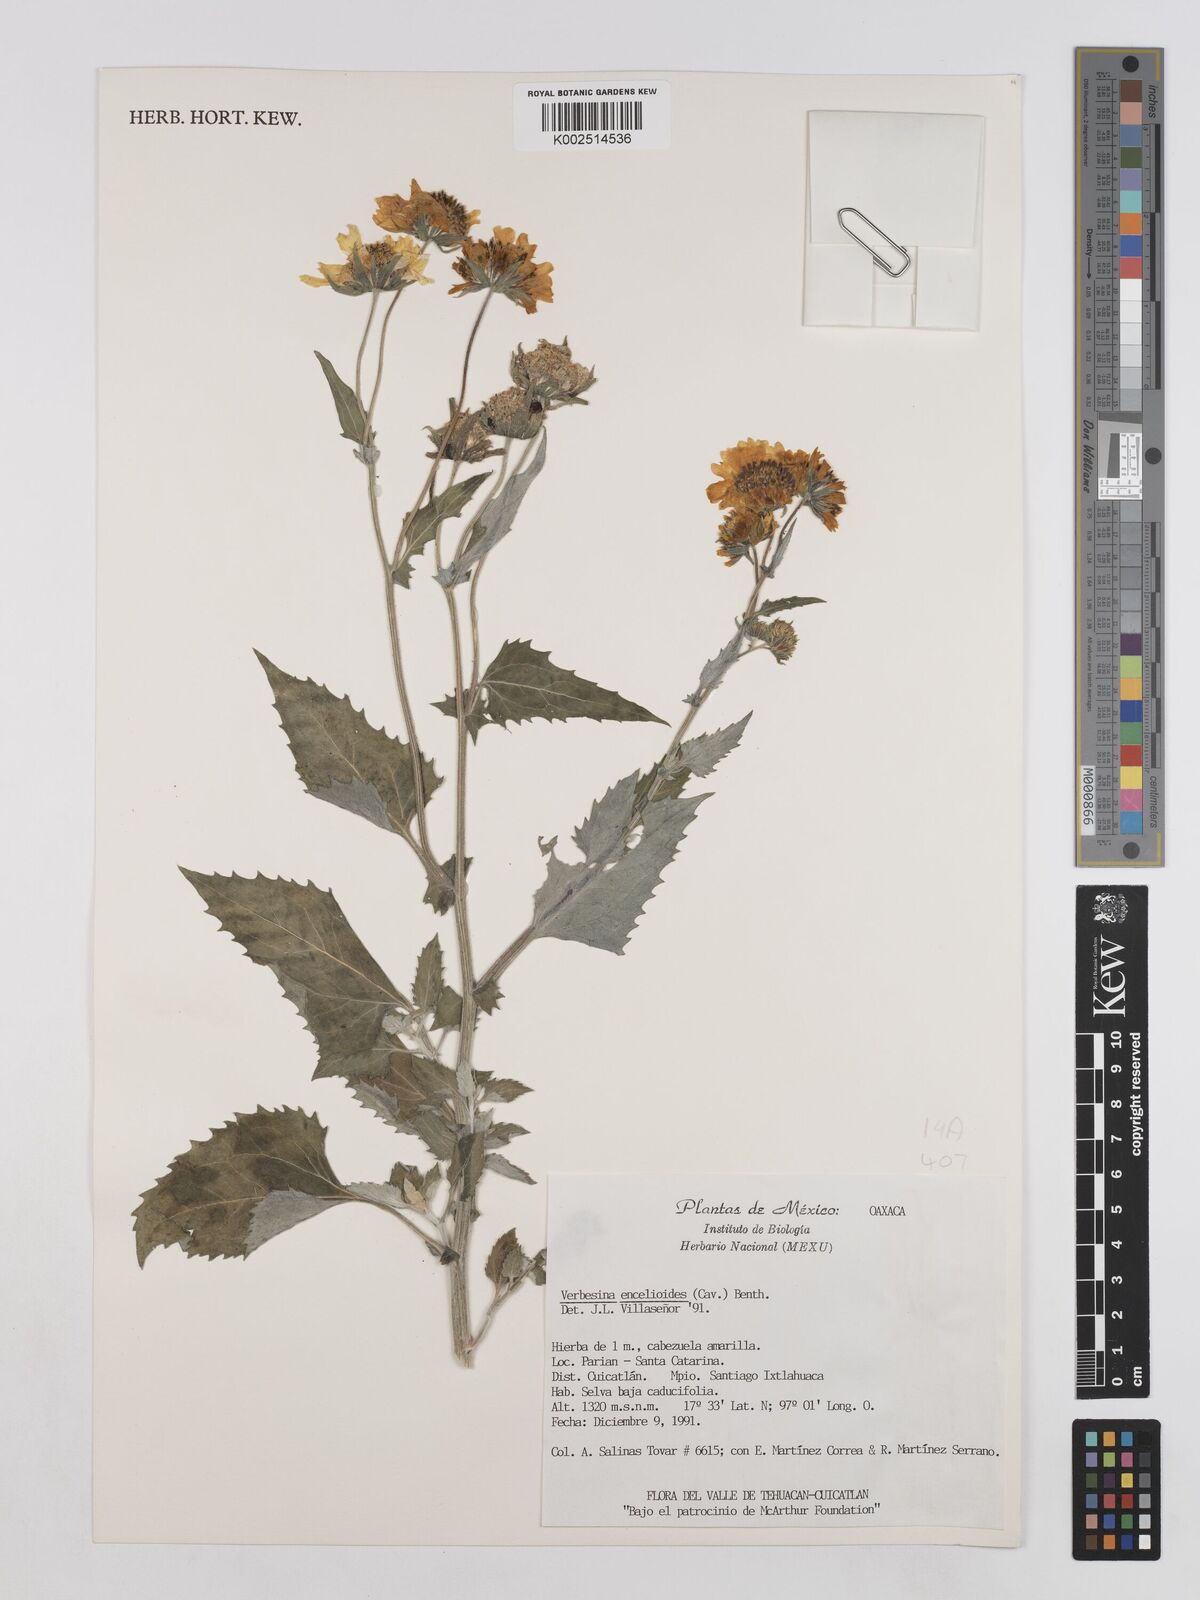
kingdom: Plantae
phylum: Tracheophyta
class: Magnoliopsida
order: Asterales
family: Asteraceae
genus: Verbesina
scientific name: Verbesina encelioides
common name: Golden crownbeard
